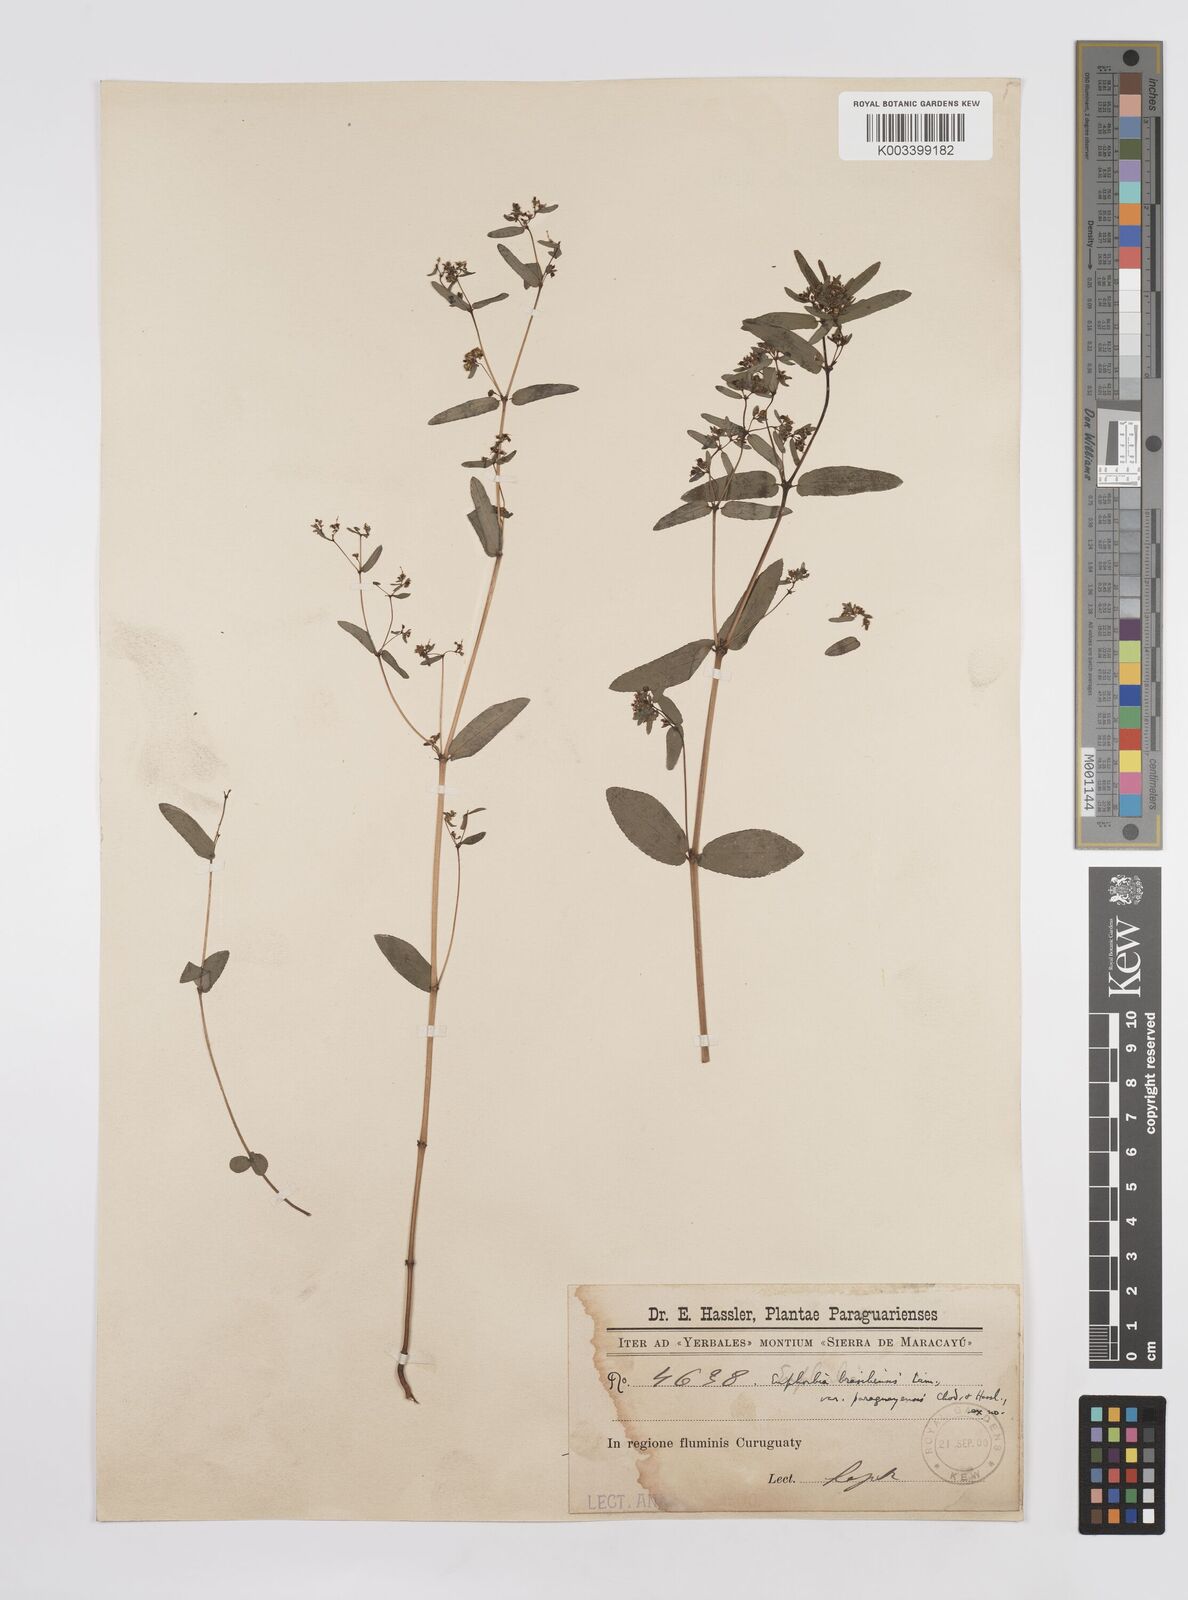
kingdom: Plantae
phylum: Tracheophyta
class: Magnoliopsida
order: Malpighiales
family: Euphorbiaceae
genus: Euphorbia
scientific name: Euphorbia hyssopifolia
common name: Hyssopleaf sandmat
